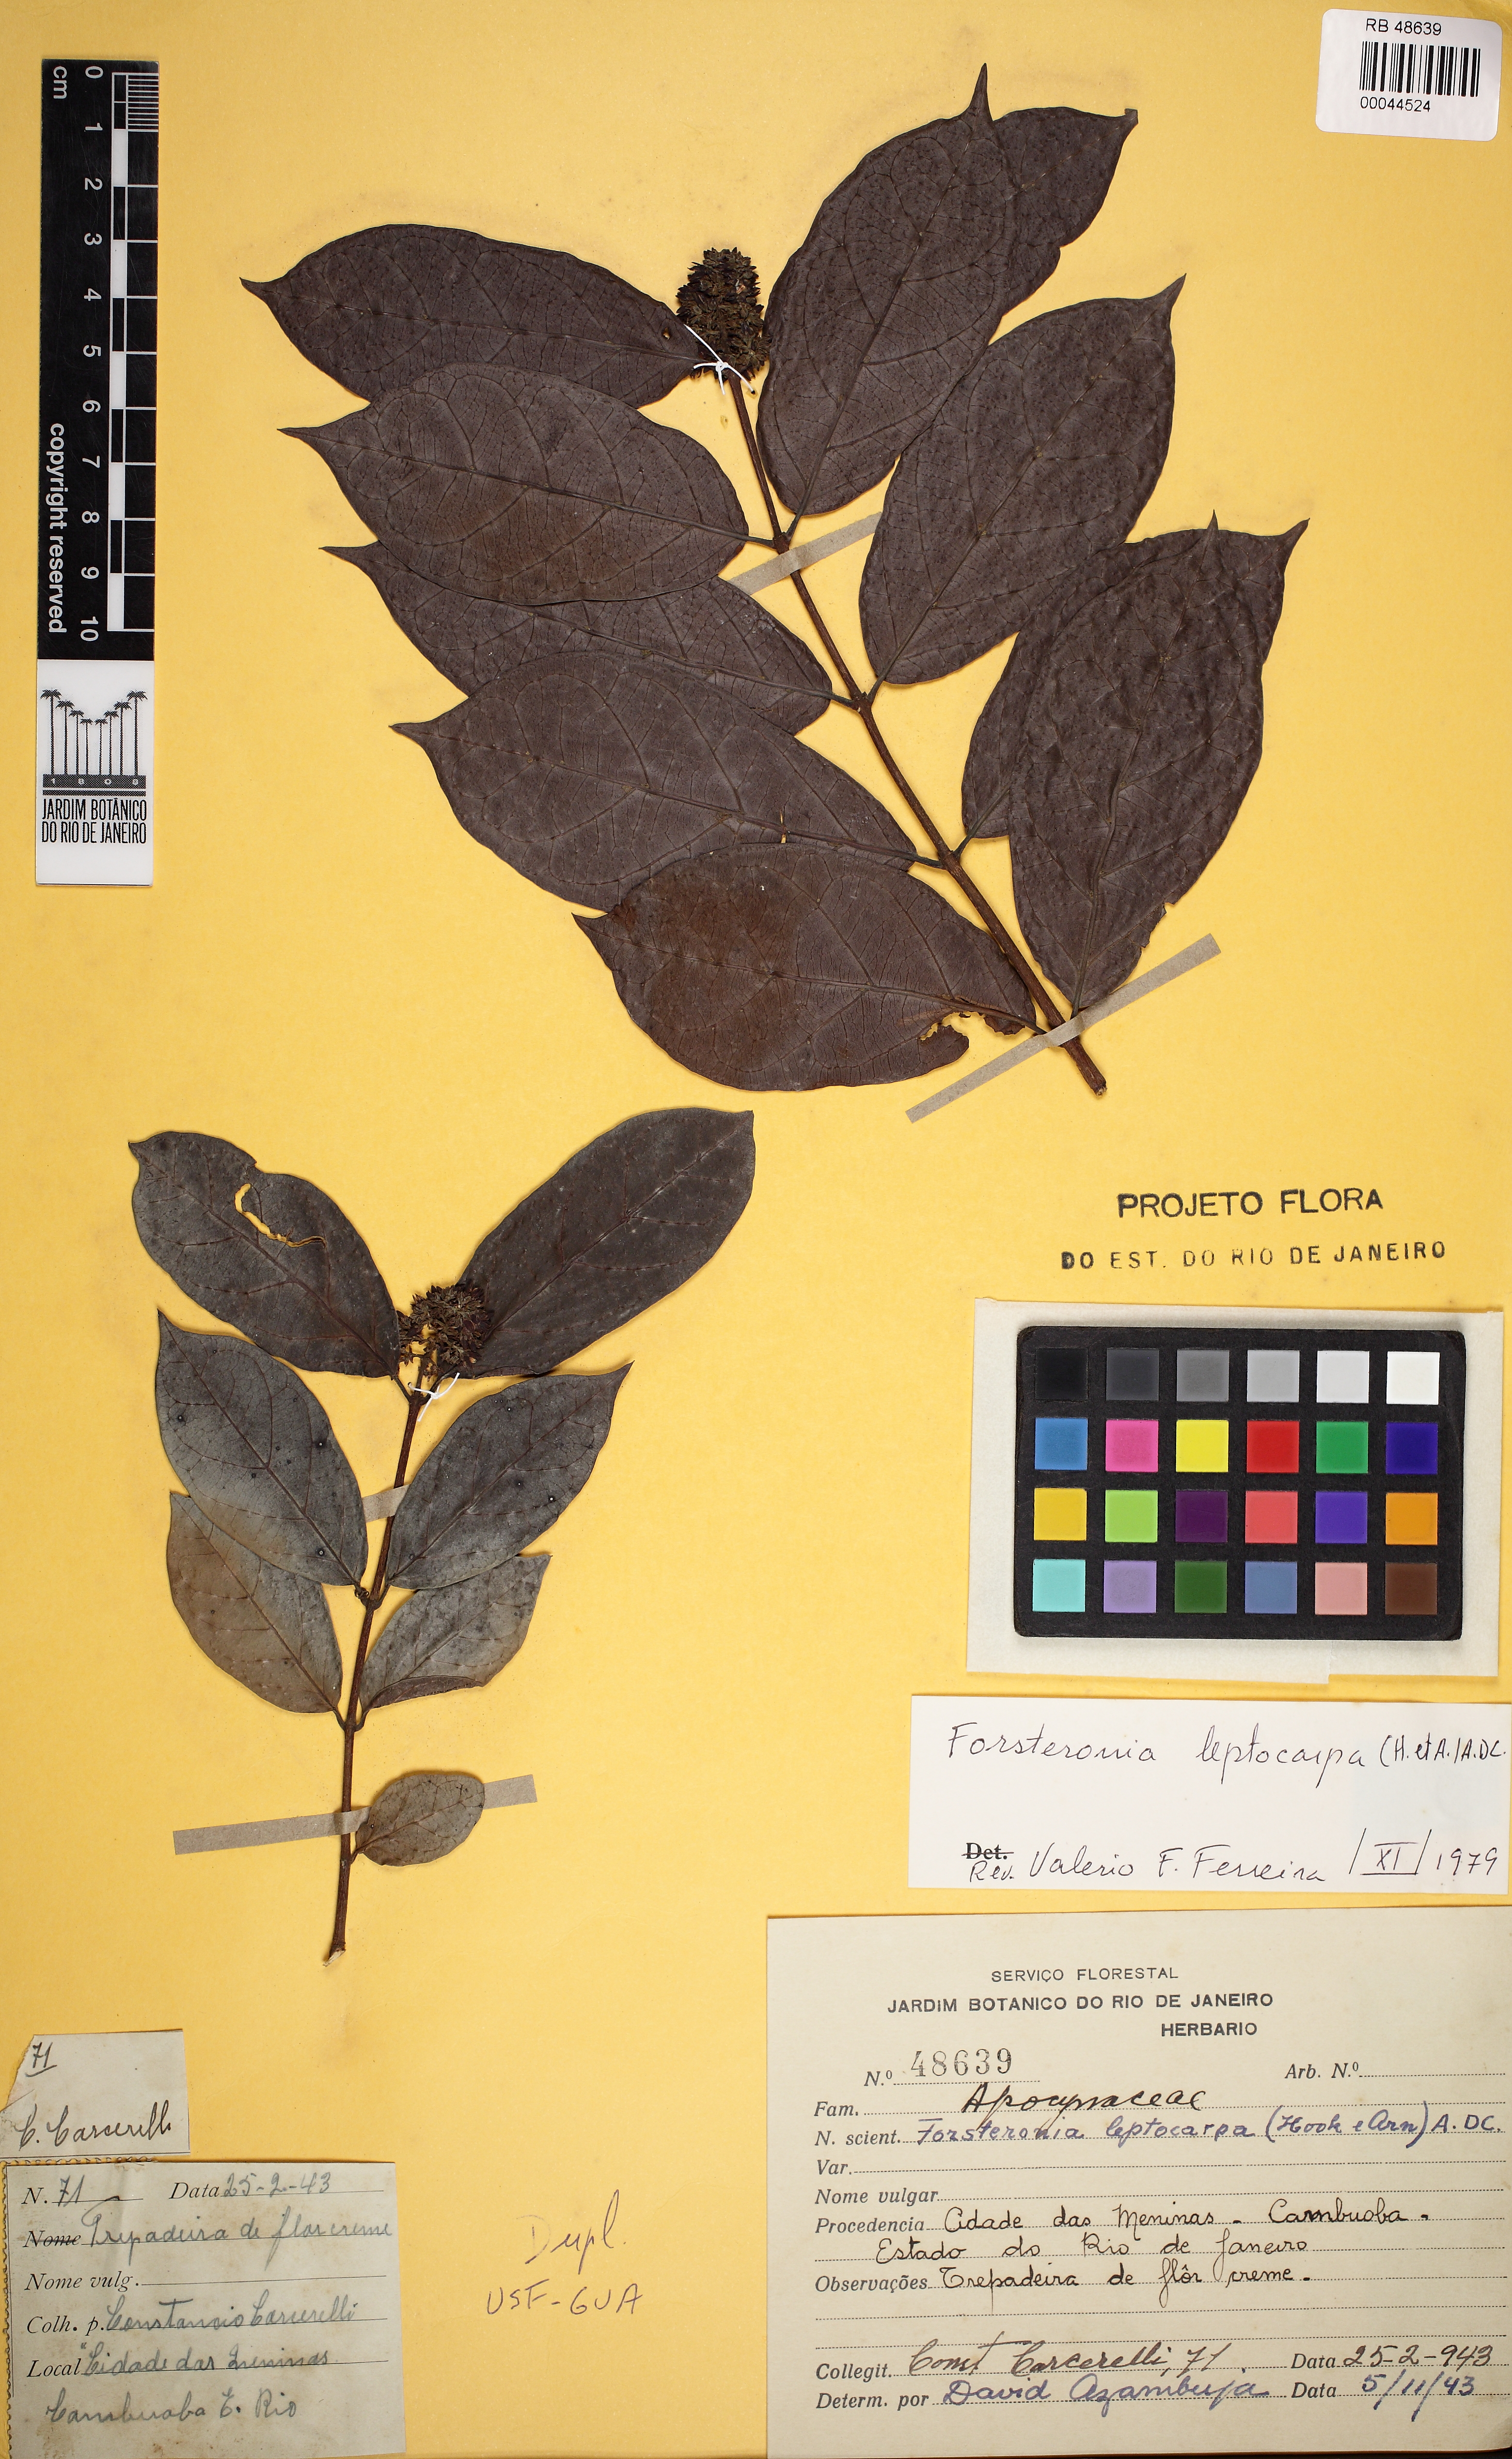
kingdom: Plantae
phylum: Tracheophyta
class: Magnoliopsida
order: Gentianales
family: Apocynaceae
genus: Forsteronia
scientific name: Forsteronia leptocarpa
